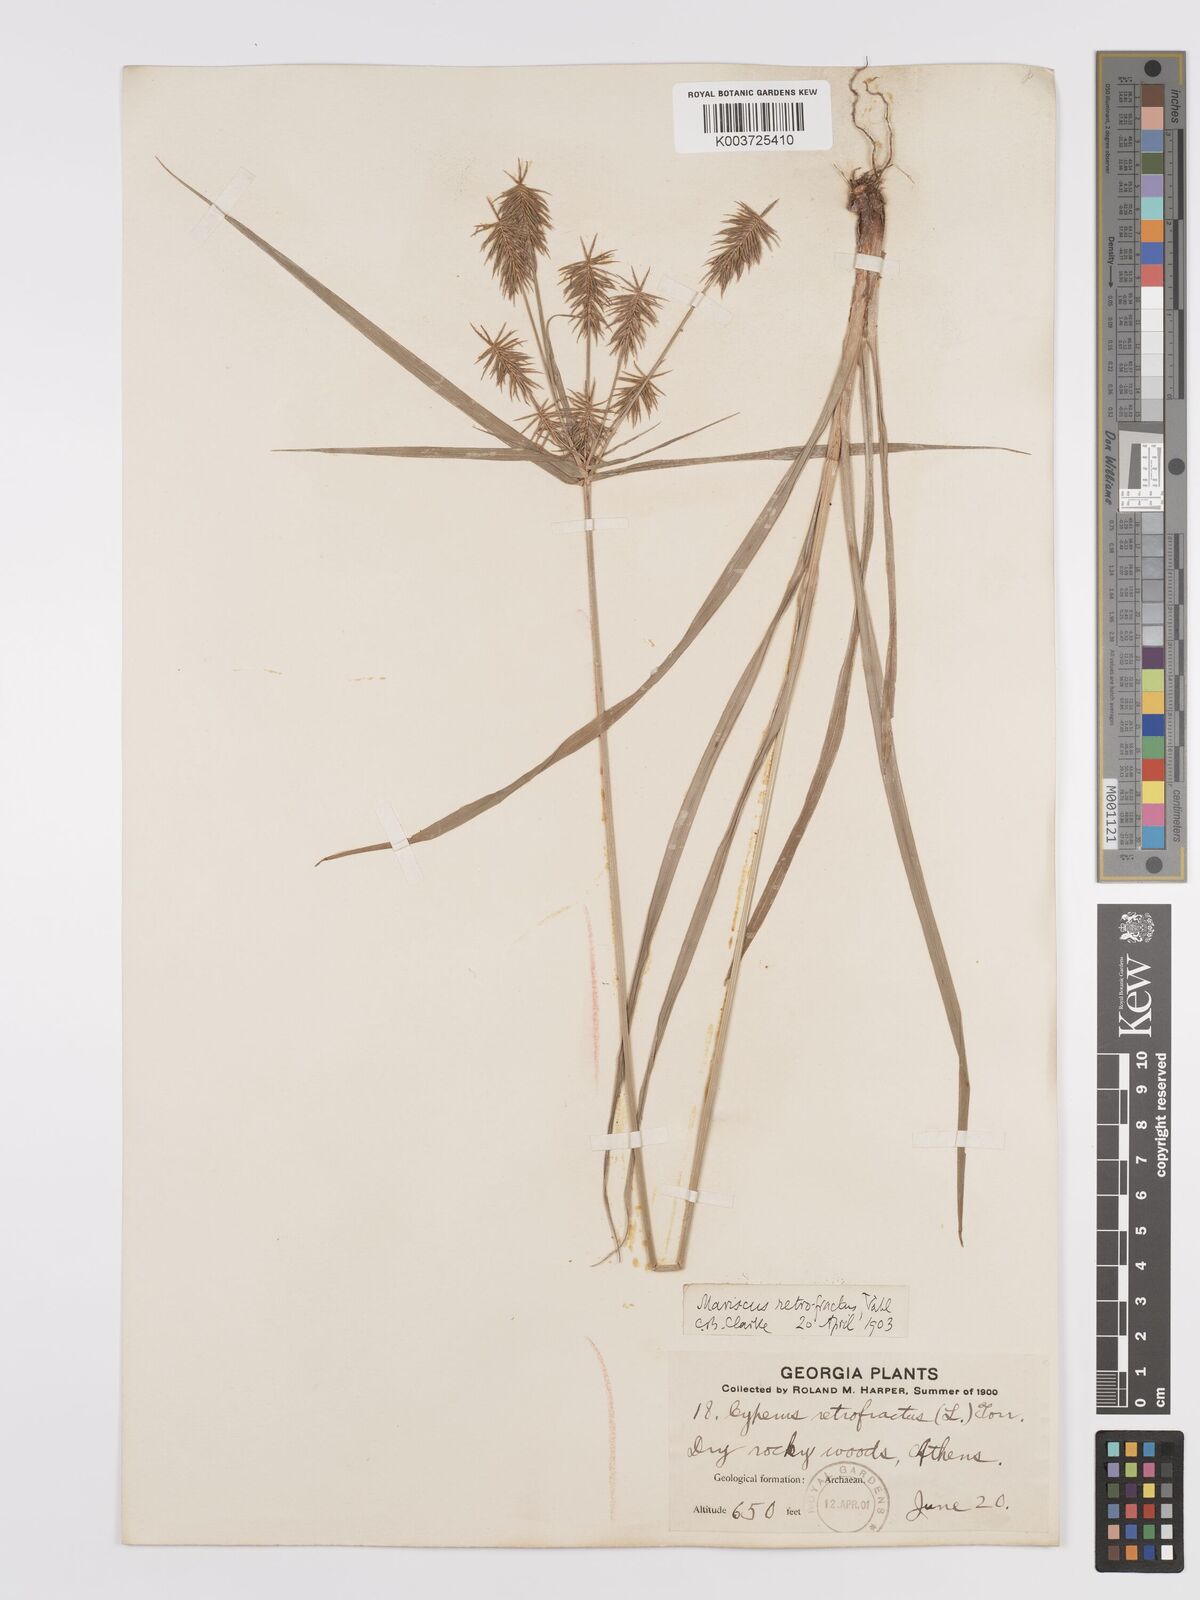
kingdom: Plantae
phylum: Tracheophyta
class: Liliopsida
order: Poales
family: Cyperaceae
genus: Cyperus
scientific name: Cyperus retrofractus
